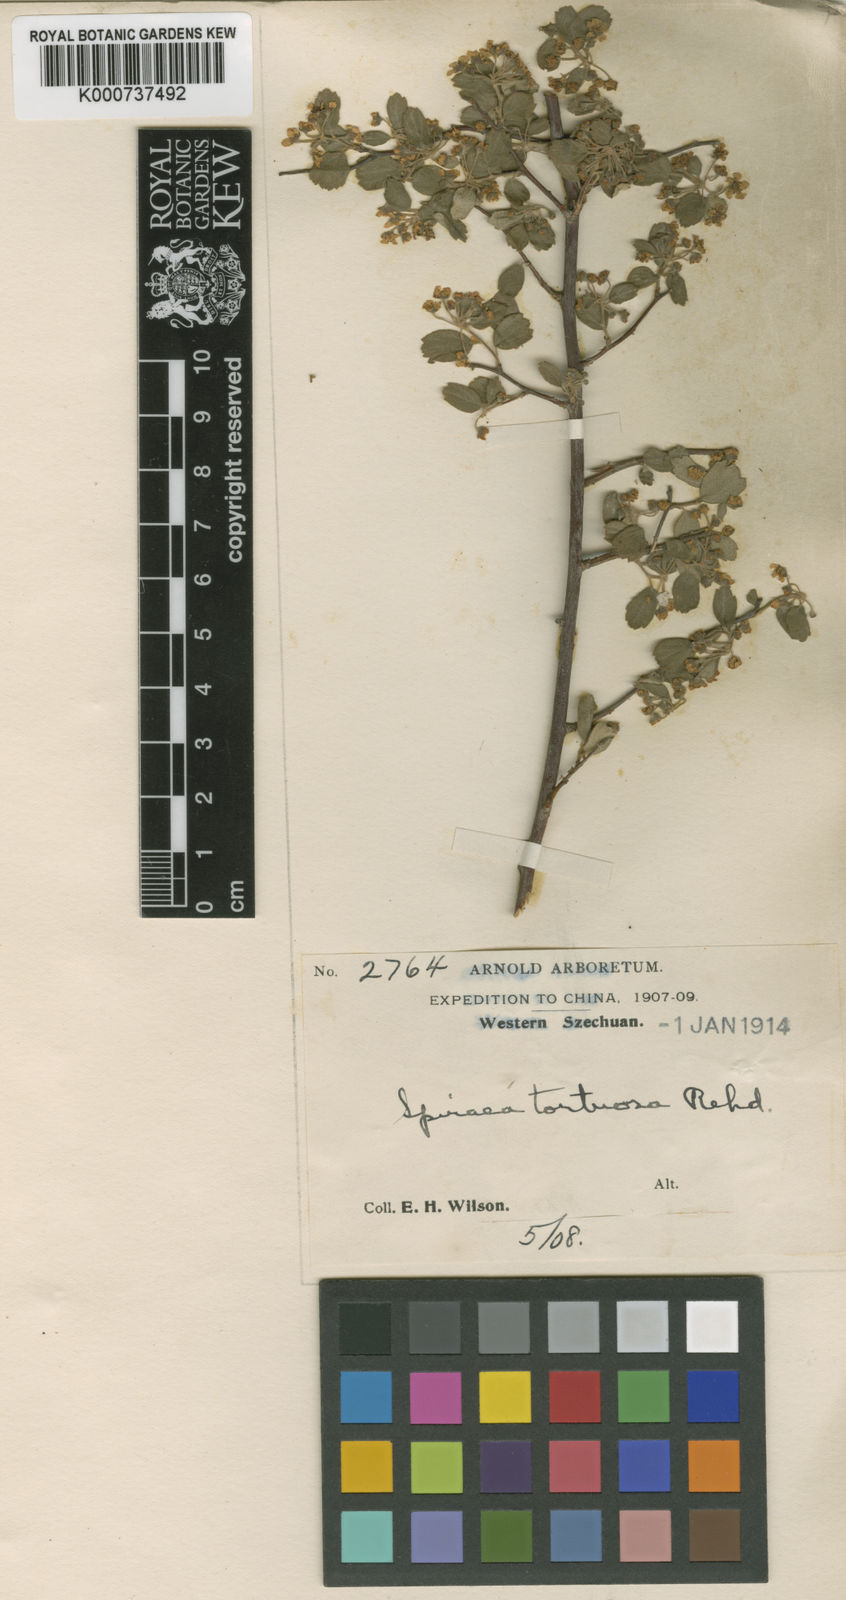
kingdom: Plantae
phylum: Tracheophyta
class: Magnoliopsida
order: Rosales
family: Rosaceae
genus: Spiraea
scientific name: Spiraea yunnanensis
